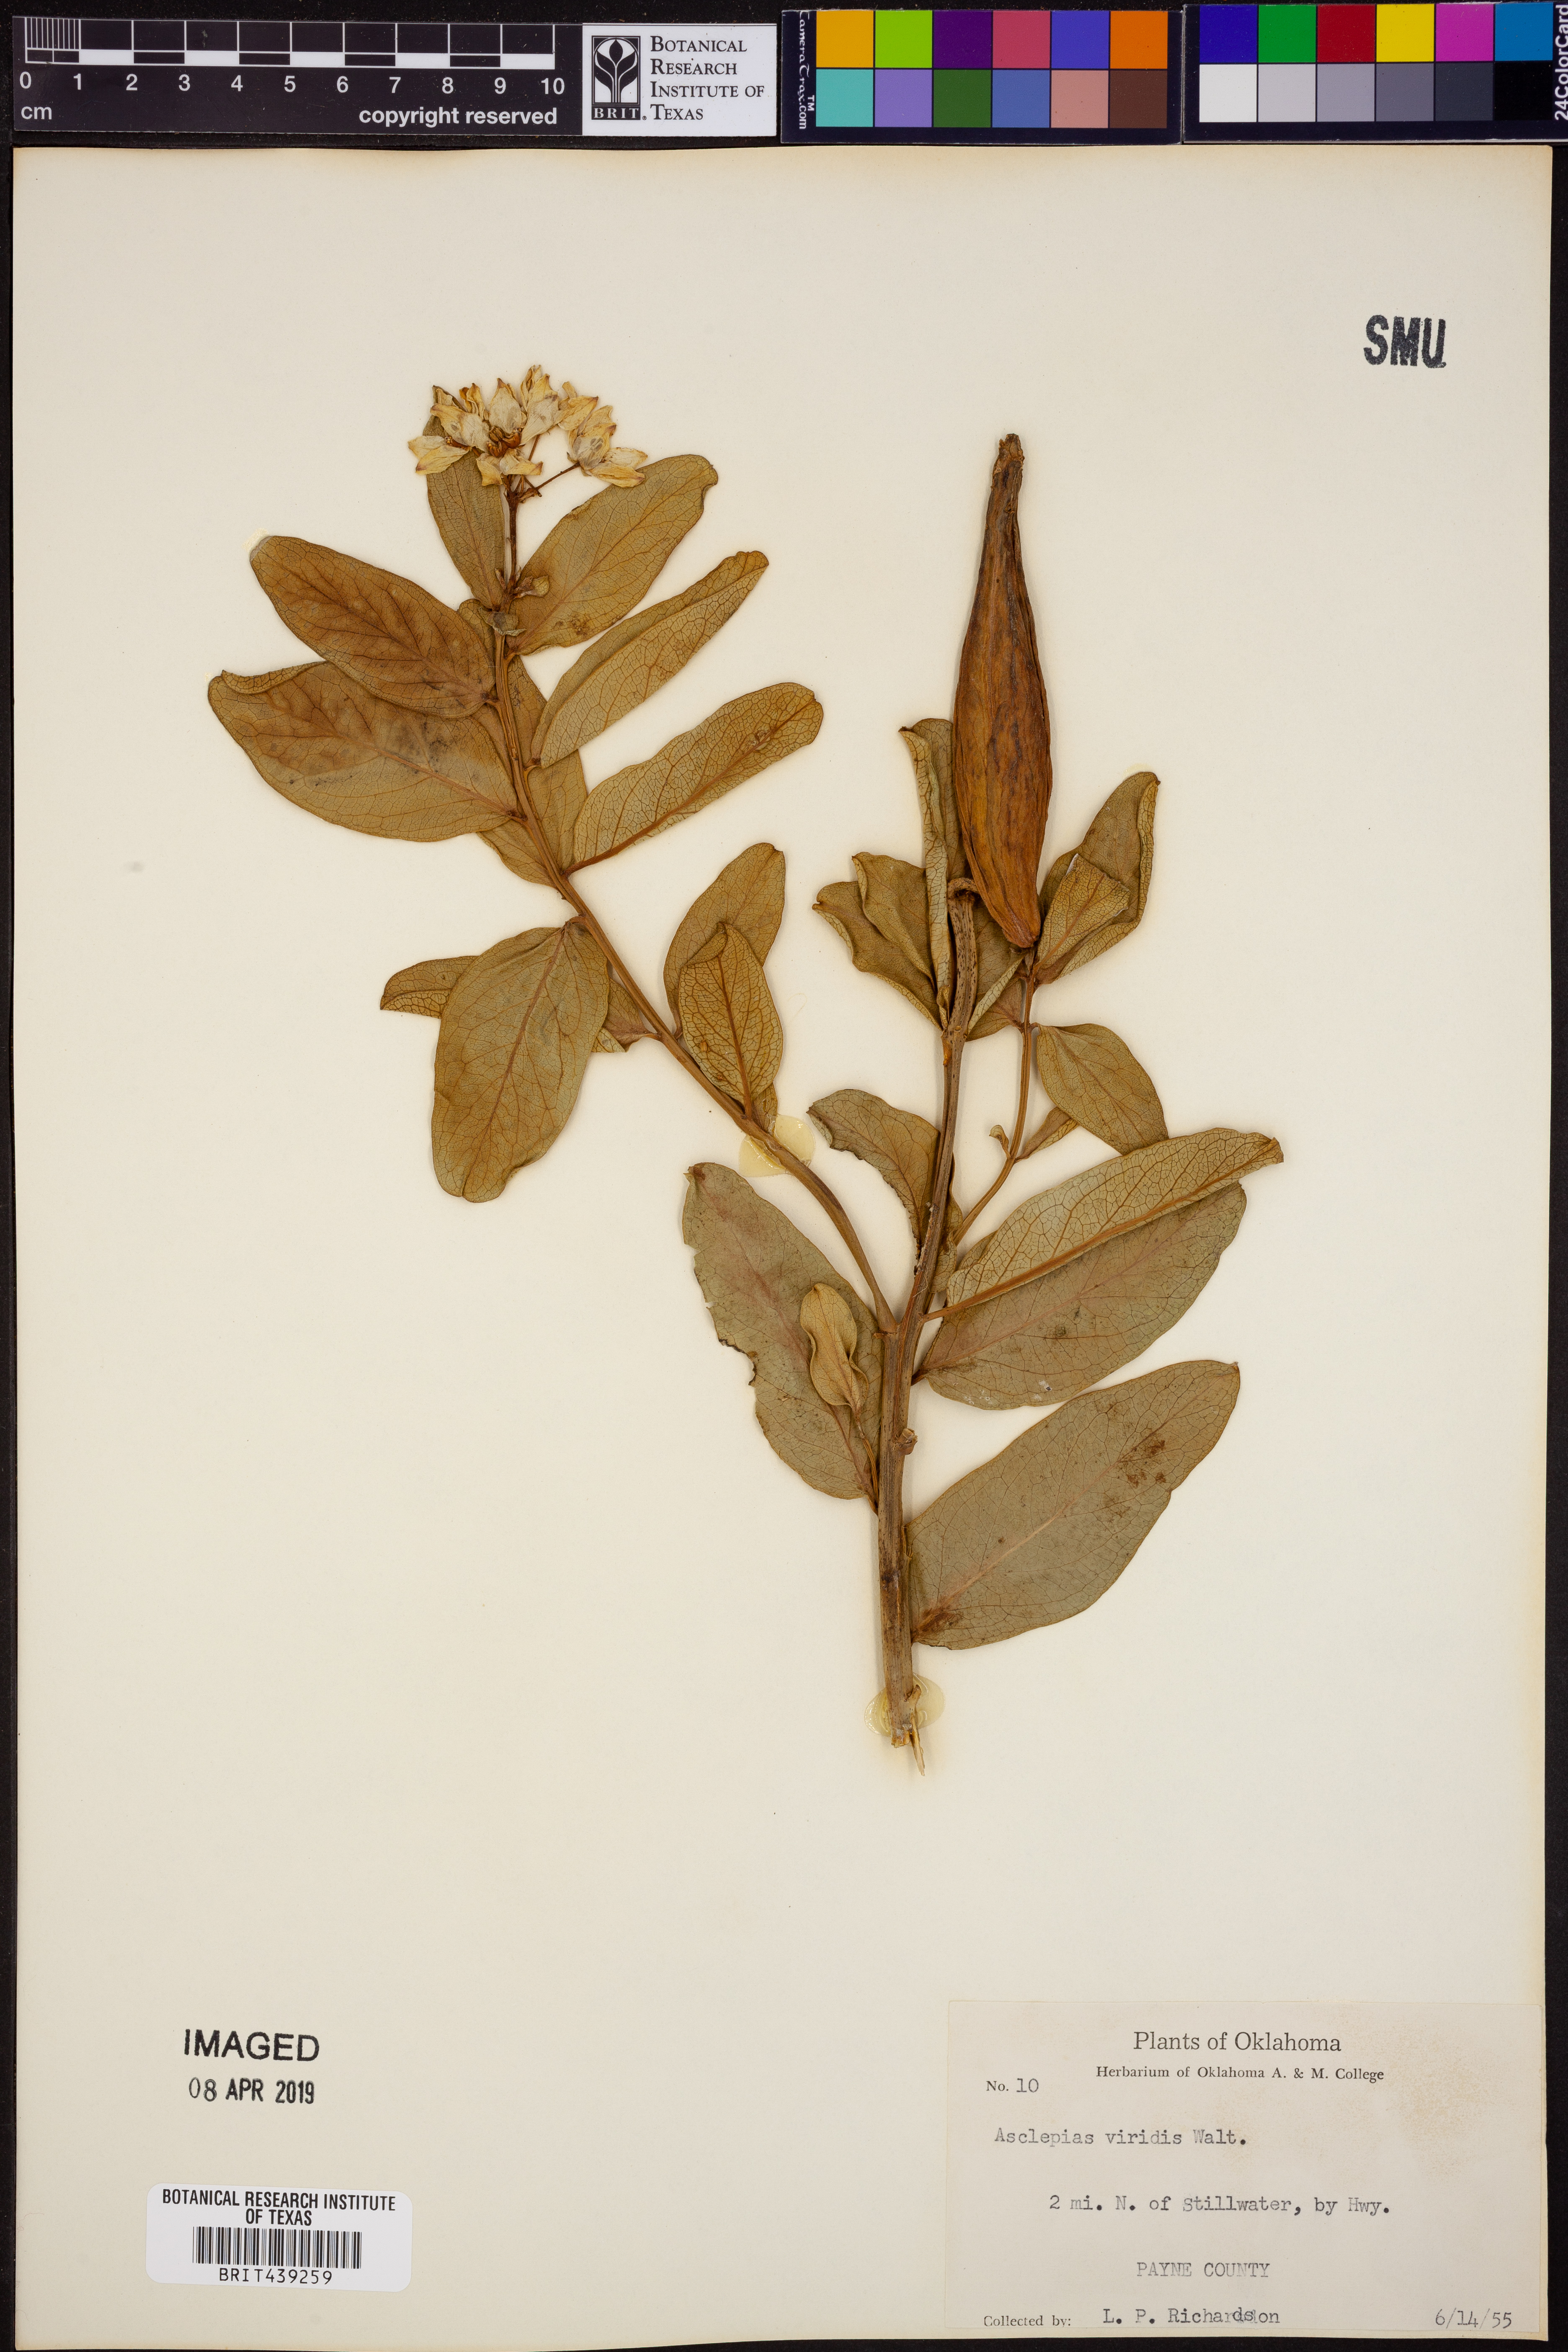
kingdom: Plantae
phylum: Tracheophyta
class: Magnoliopsida
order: Gentianales
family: Apocynaceae
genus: Asclepias
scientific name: Asclepias viridis
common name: Antelope-horns
